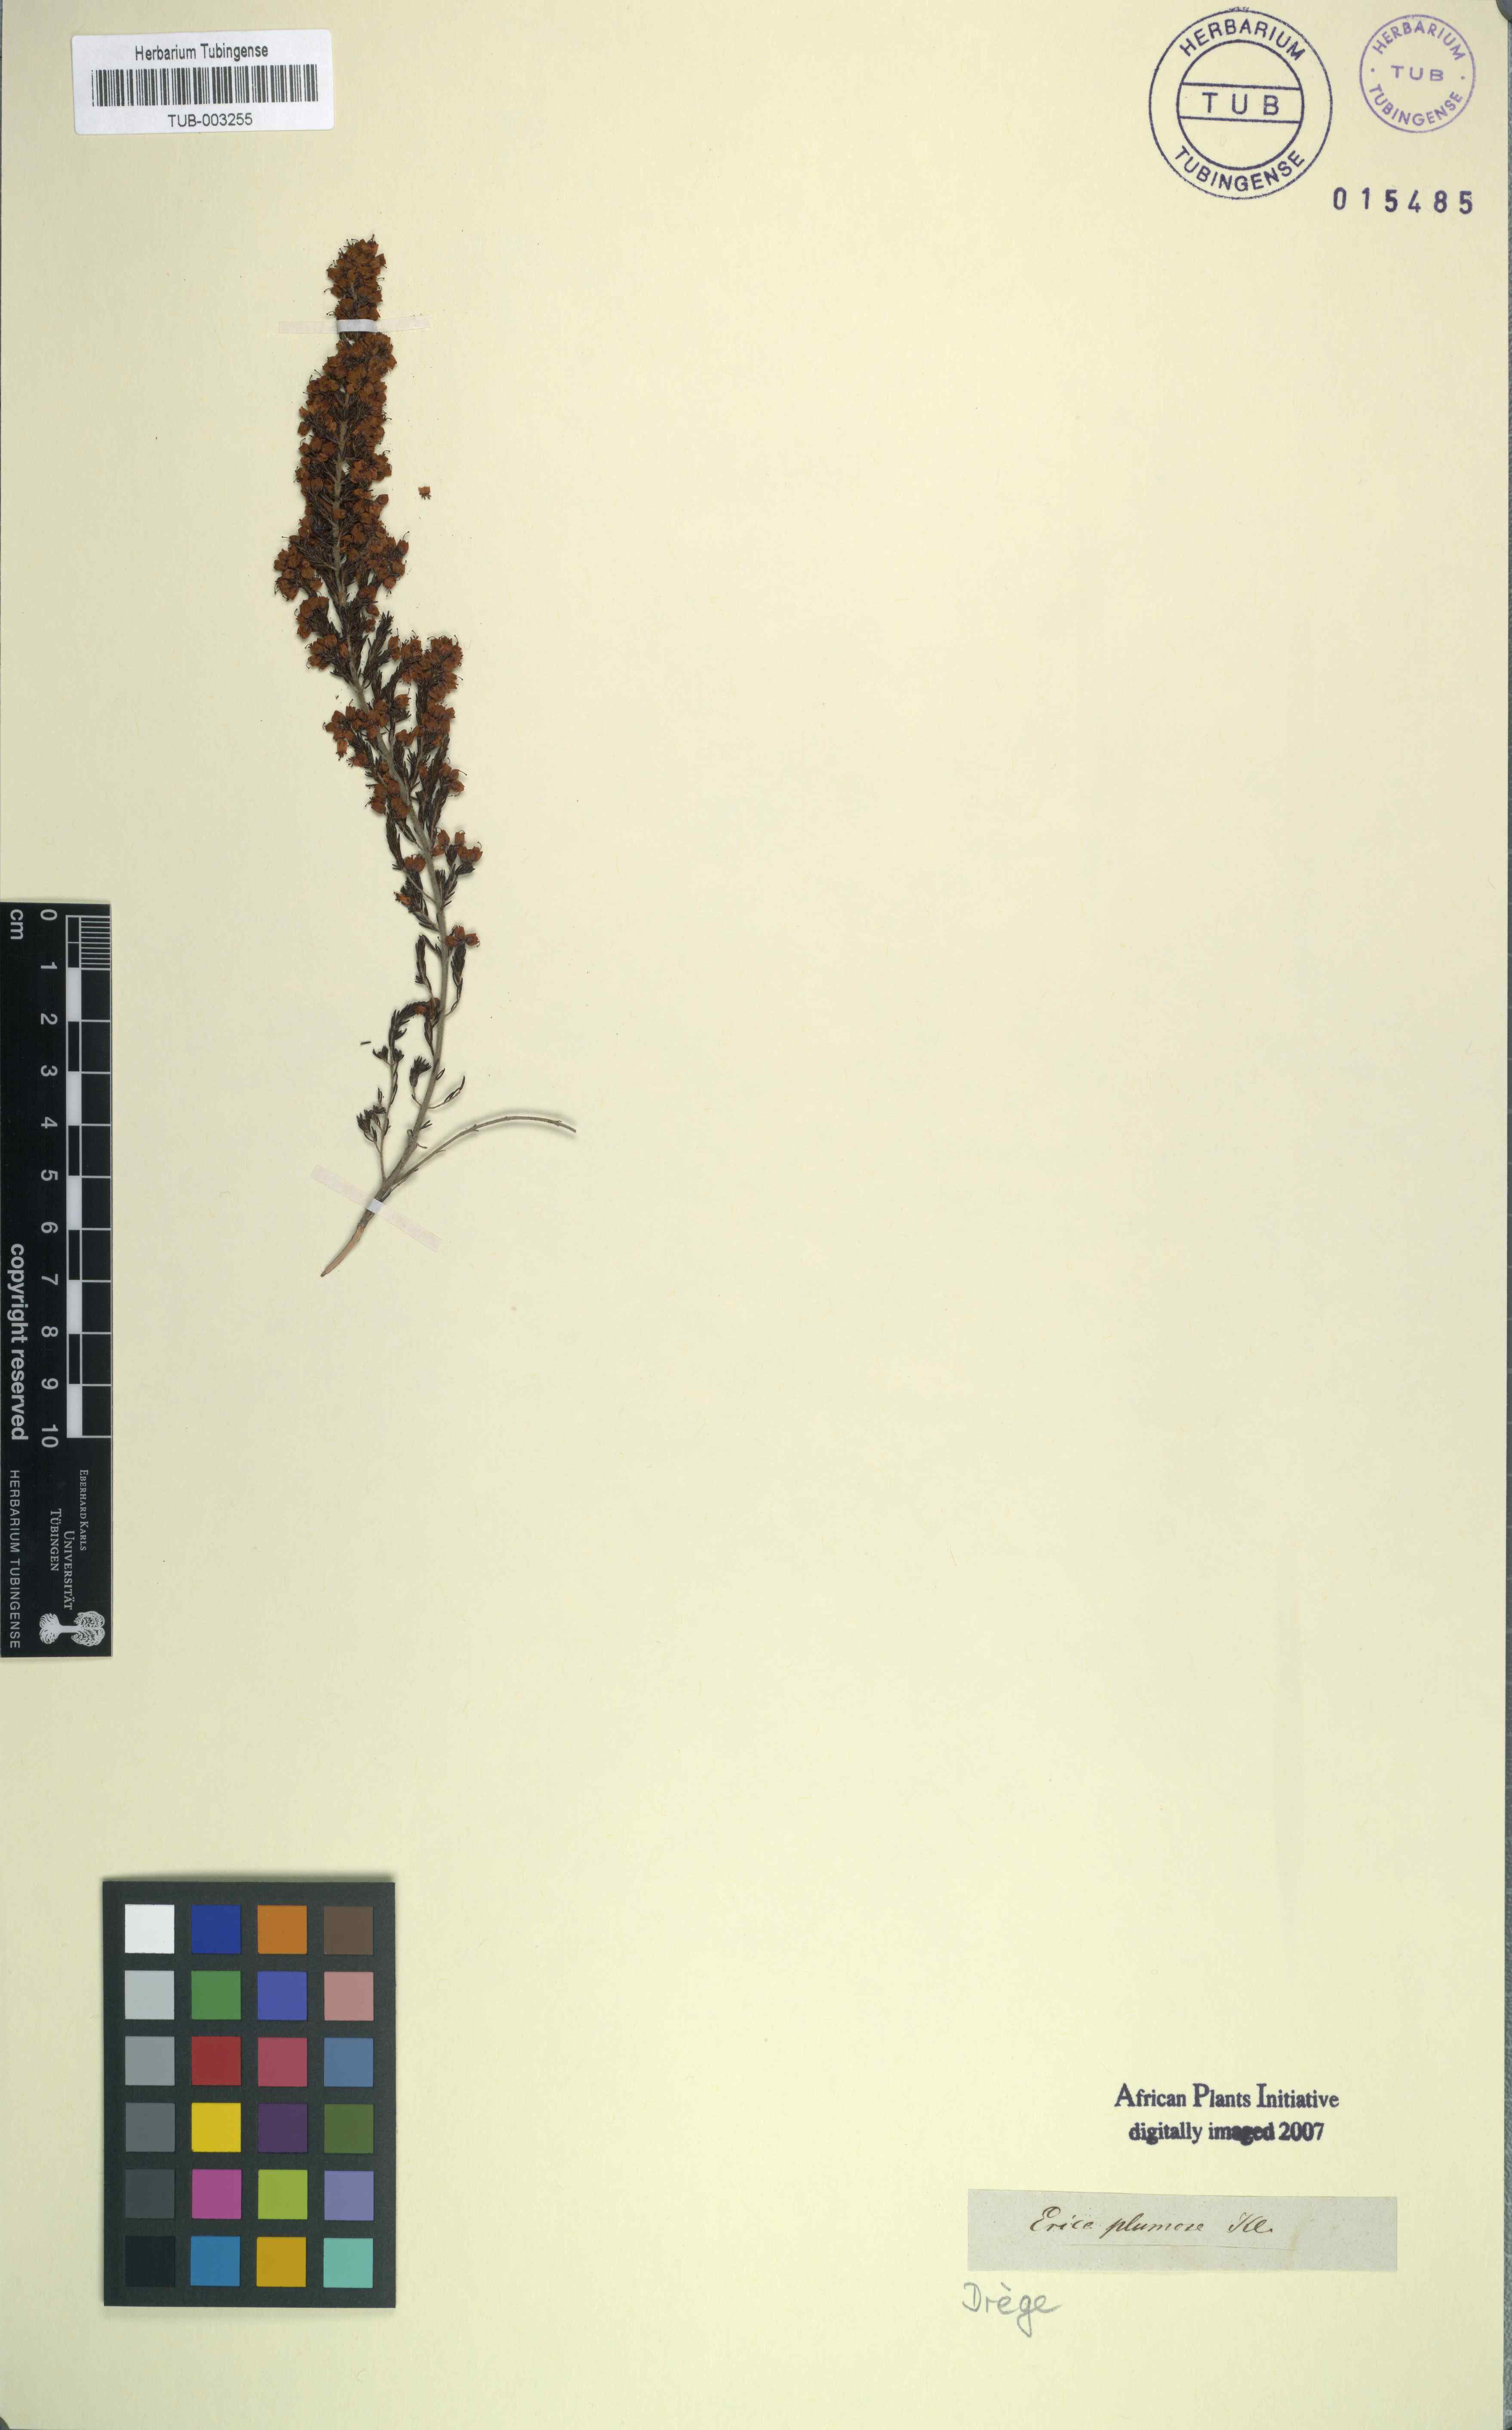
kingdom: Plantae
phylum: Tracheophyta
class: Magnoliopsida
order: Ericales
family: Ericaceae
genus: Erica
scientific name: Erica amoena
